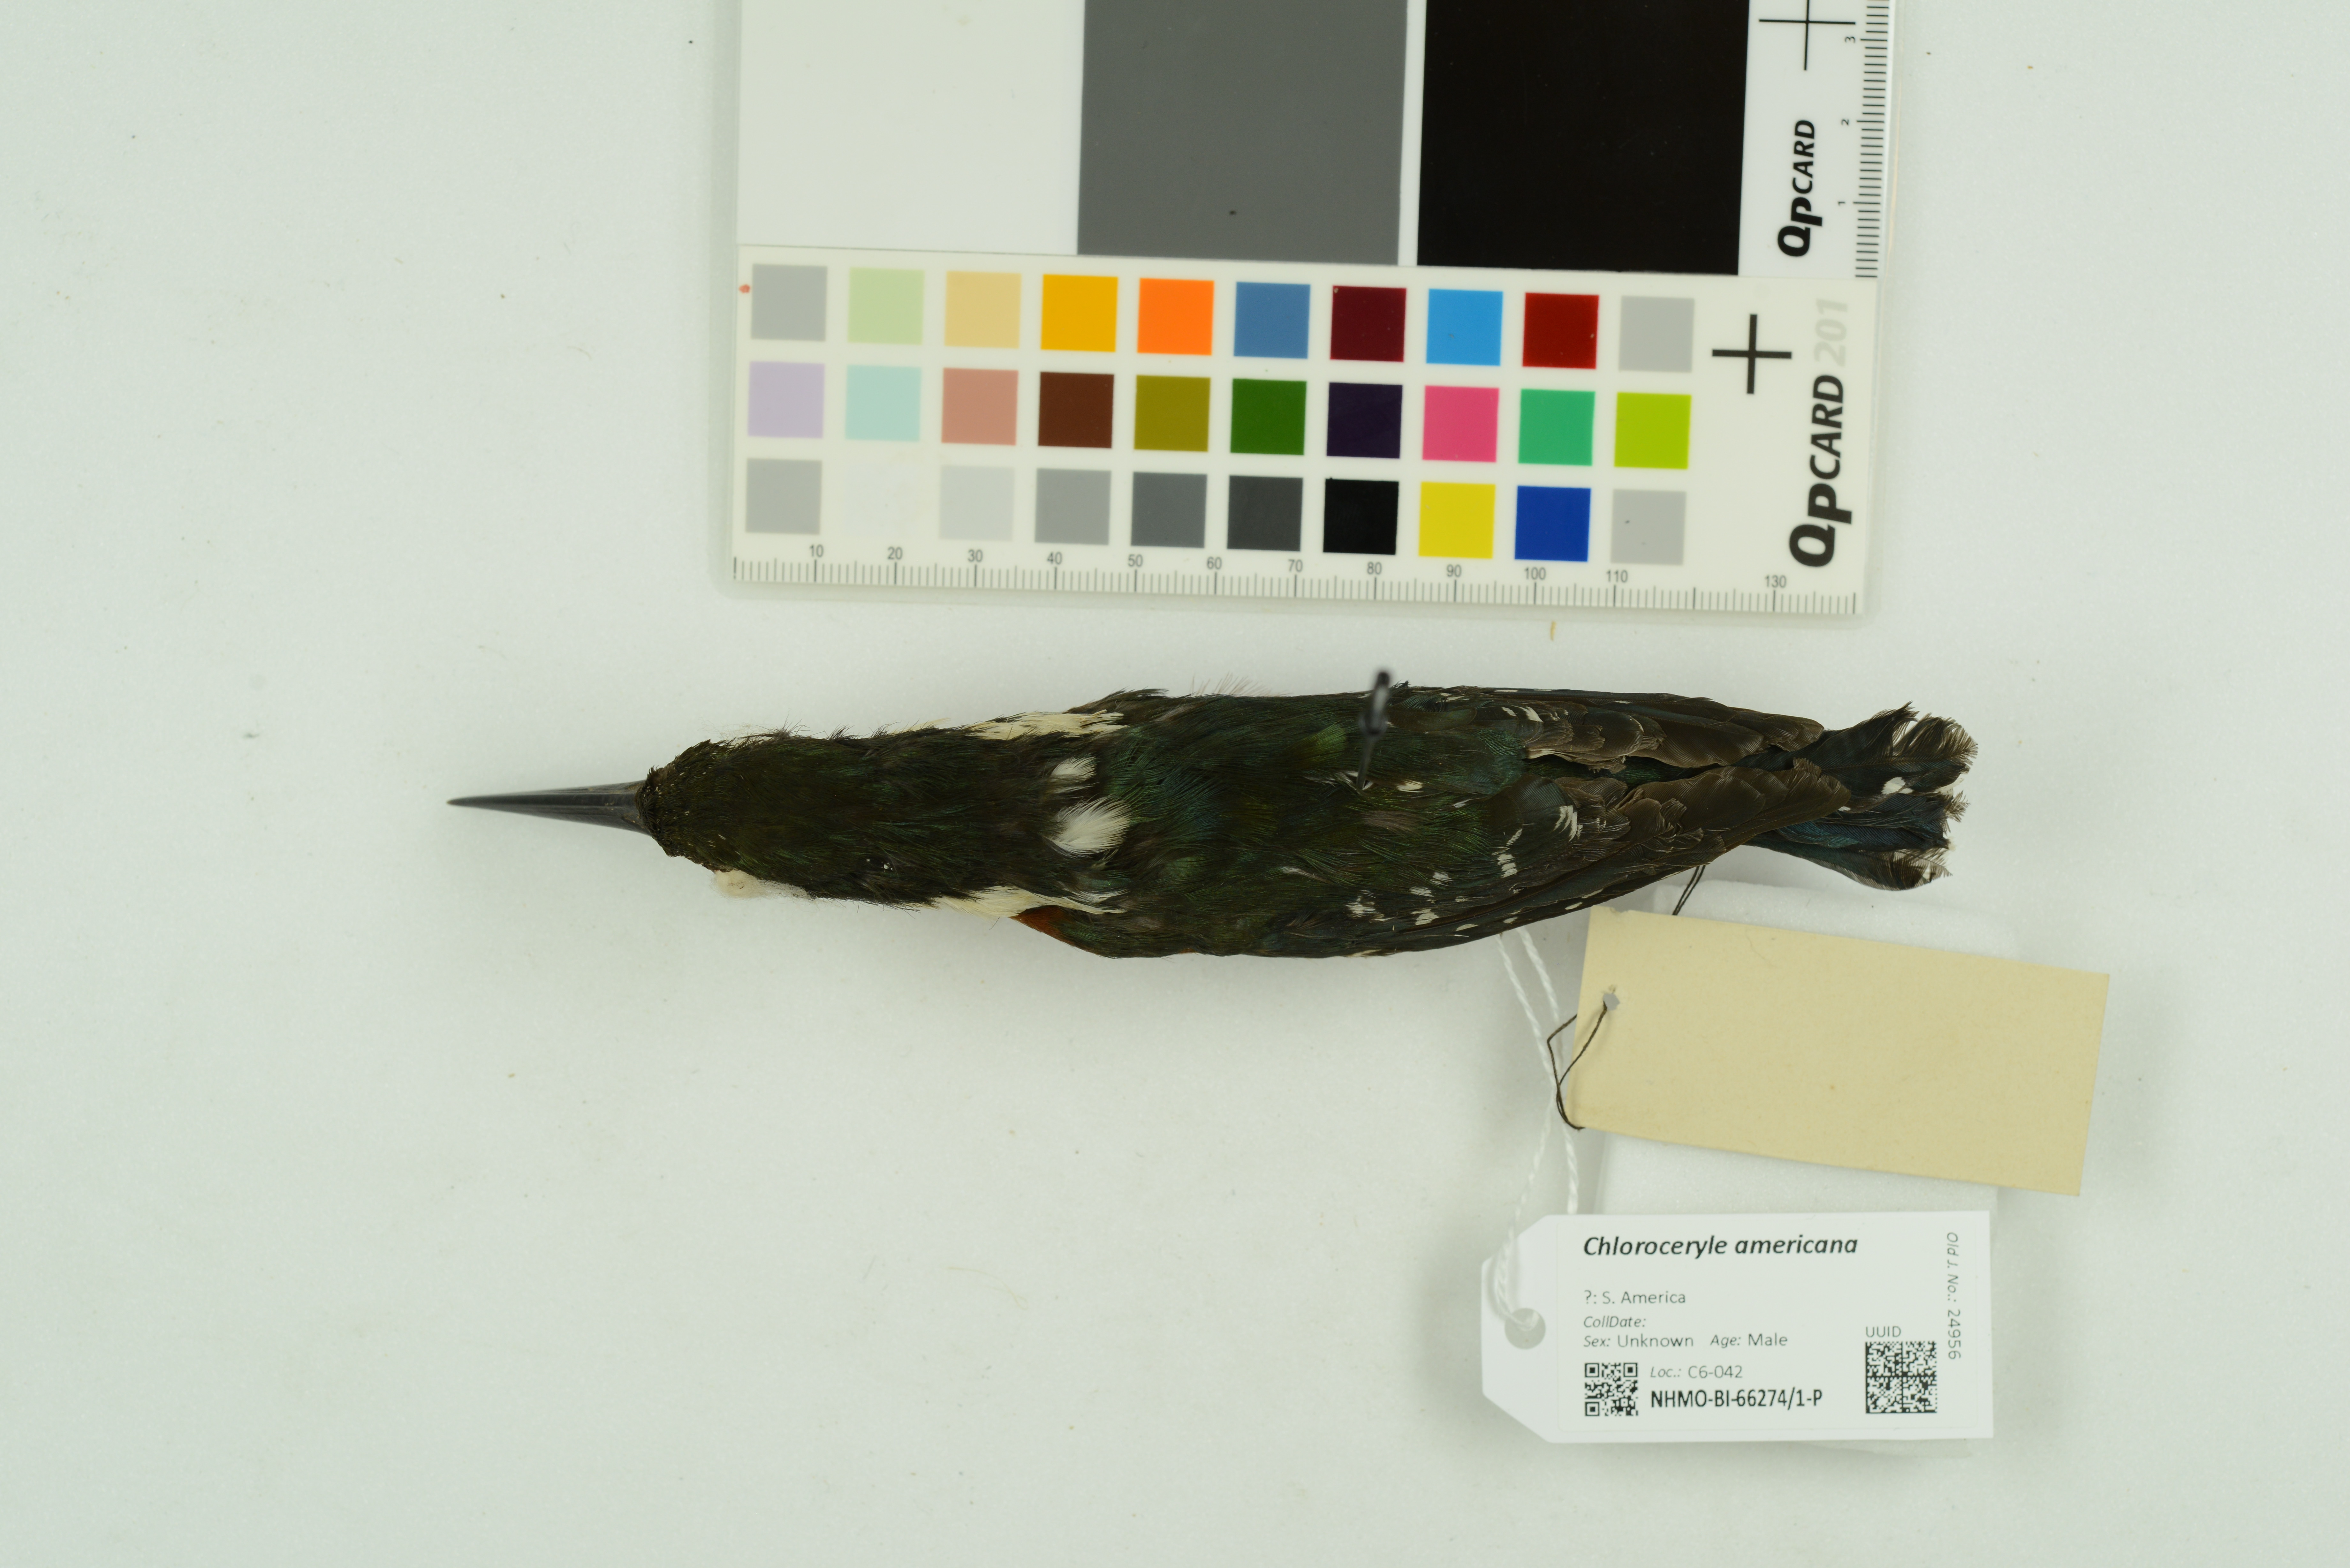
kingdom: Animalia
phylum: Chordata
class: Aves
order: Coraciiformes
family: Alcedinidae
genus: Chloroceryle
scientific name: Chloroceryle americana
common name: Green kingfisher
